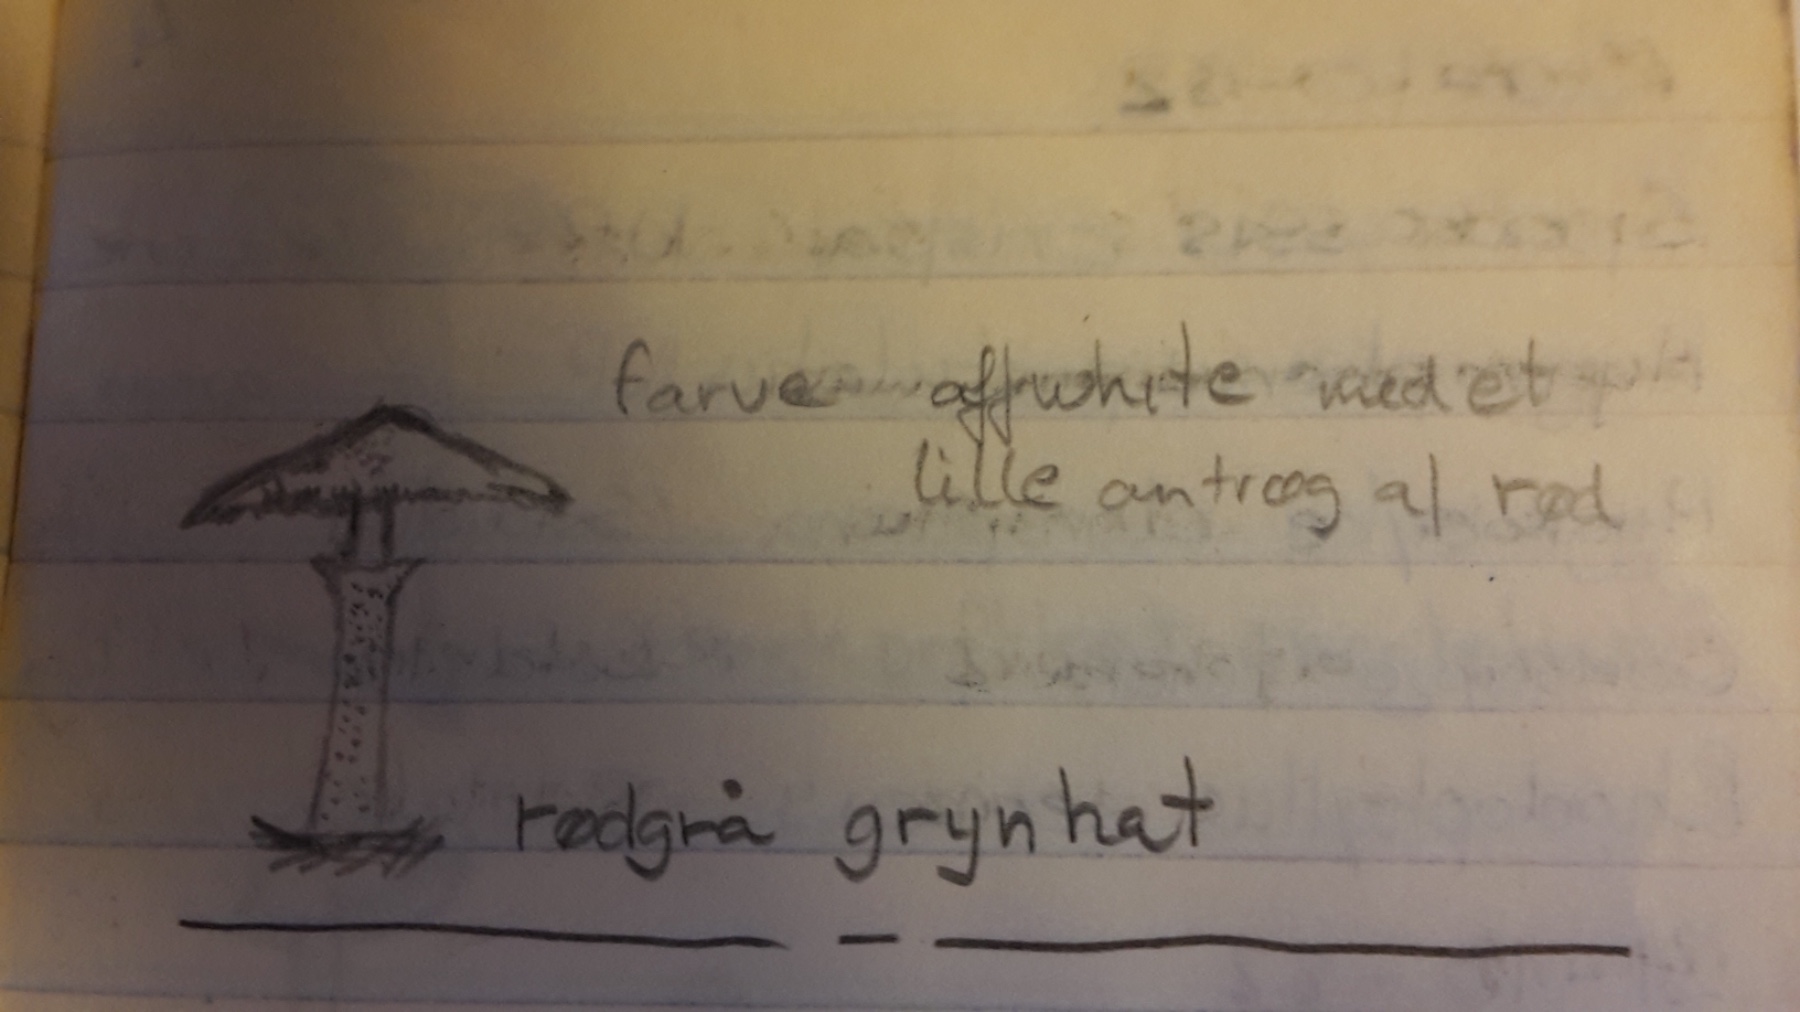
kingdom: Fungi
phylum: Basidiomycota
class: Agaricomycetes
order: Agaricales
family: Tricholomataceae
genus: Cystoderma
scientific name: Cystoderma carcharias
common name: rødgrå grynhat
